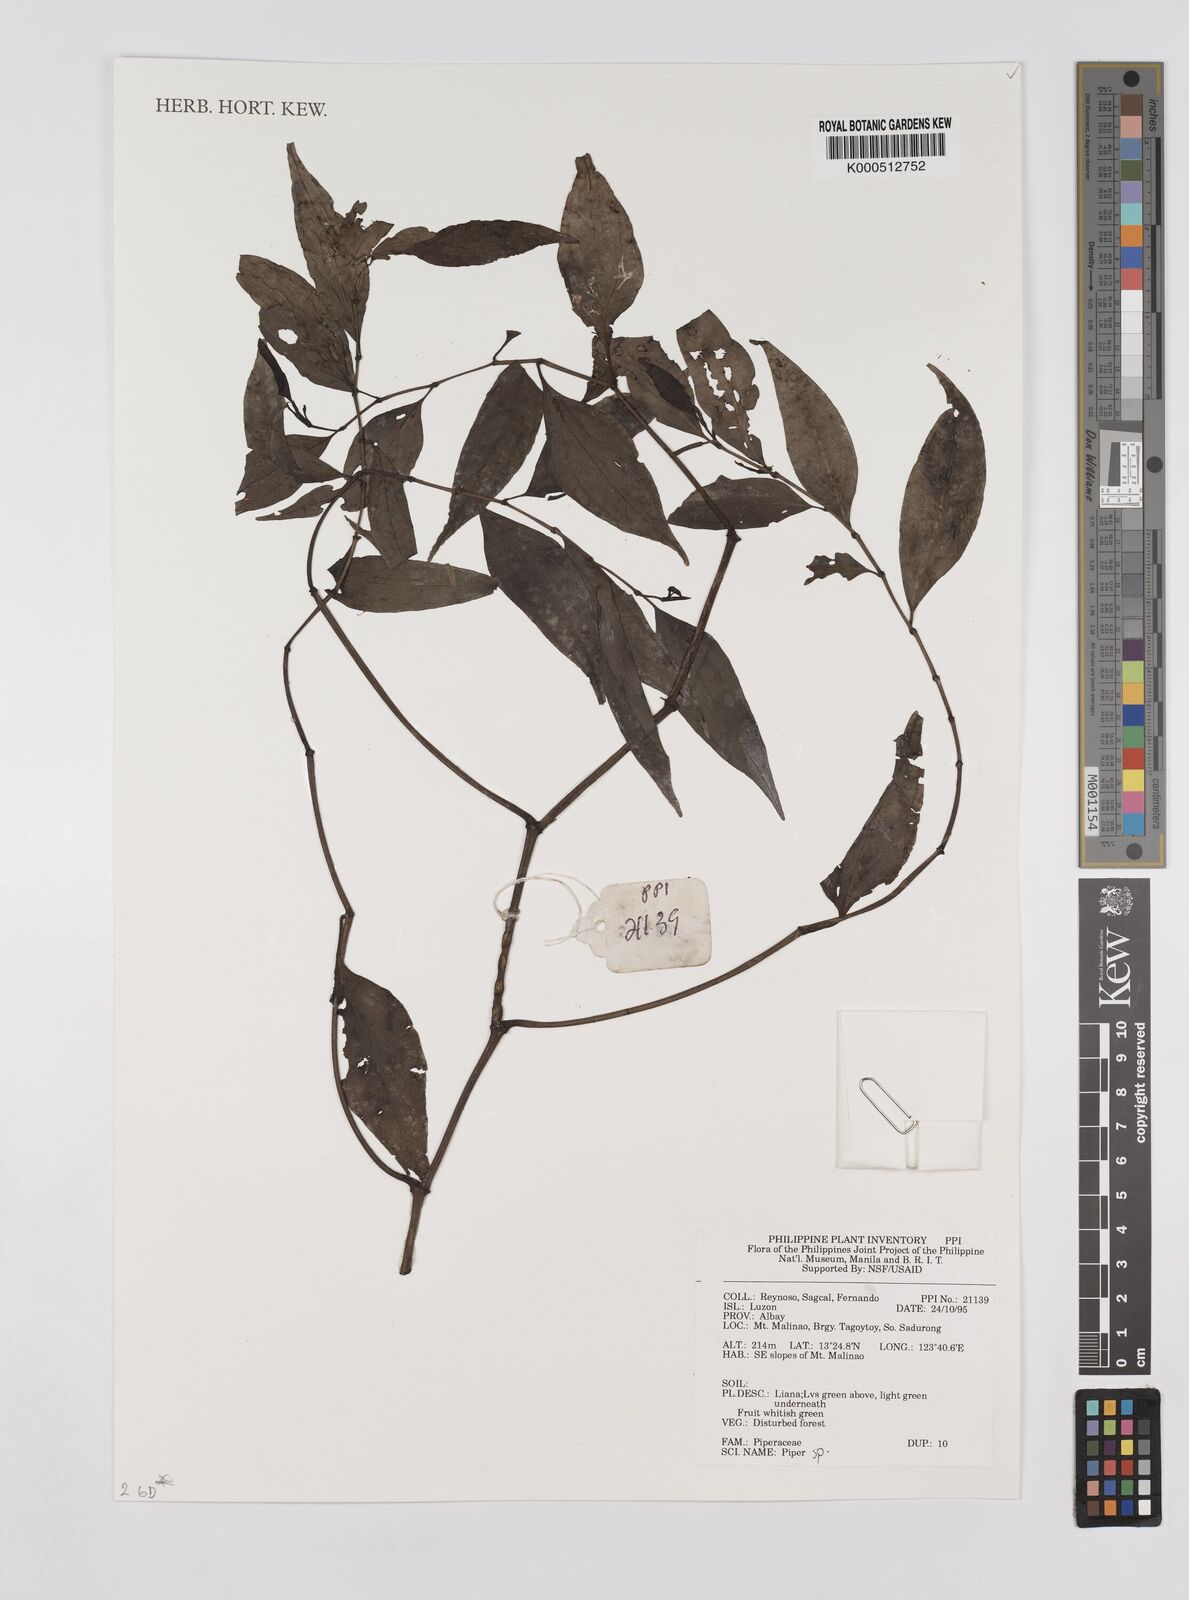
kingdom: Plantae
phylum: Tracheophyta
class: Magnoliopsida
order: Piperales
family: Piperaceae
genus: Piper
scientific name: Piper
